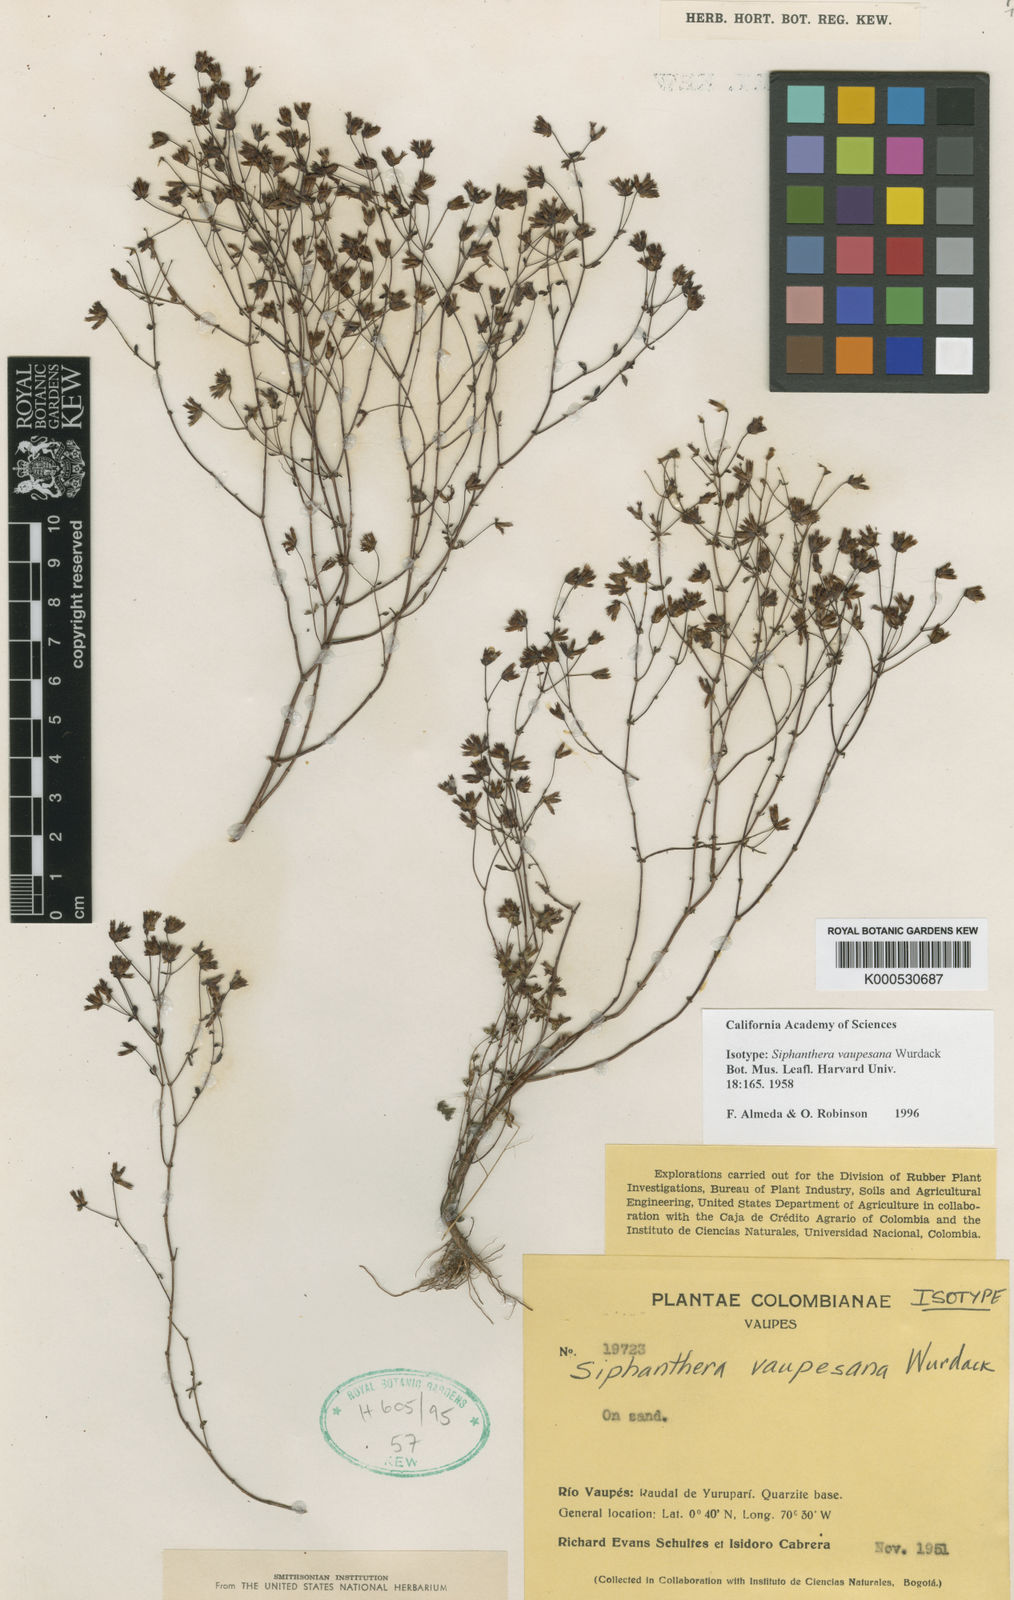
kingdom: Plantae
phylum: Tracheophyta
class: Magnoliopsida
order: Myrtales
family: Melastomataceae
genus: Siphanthera
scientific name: Siphanthera vaupesana
